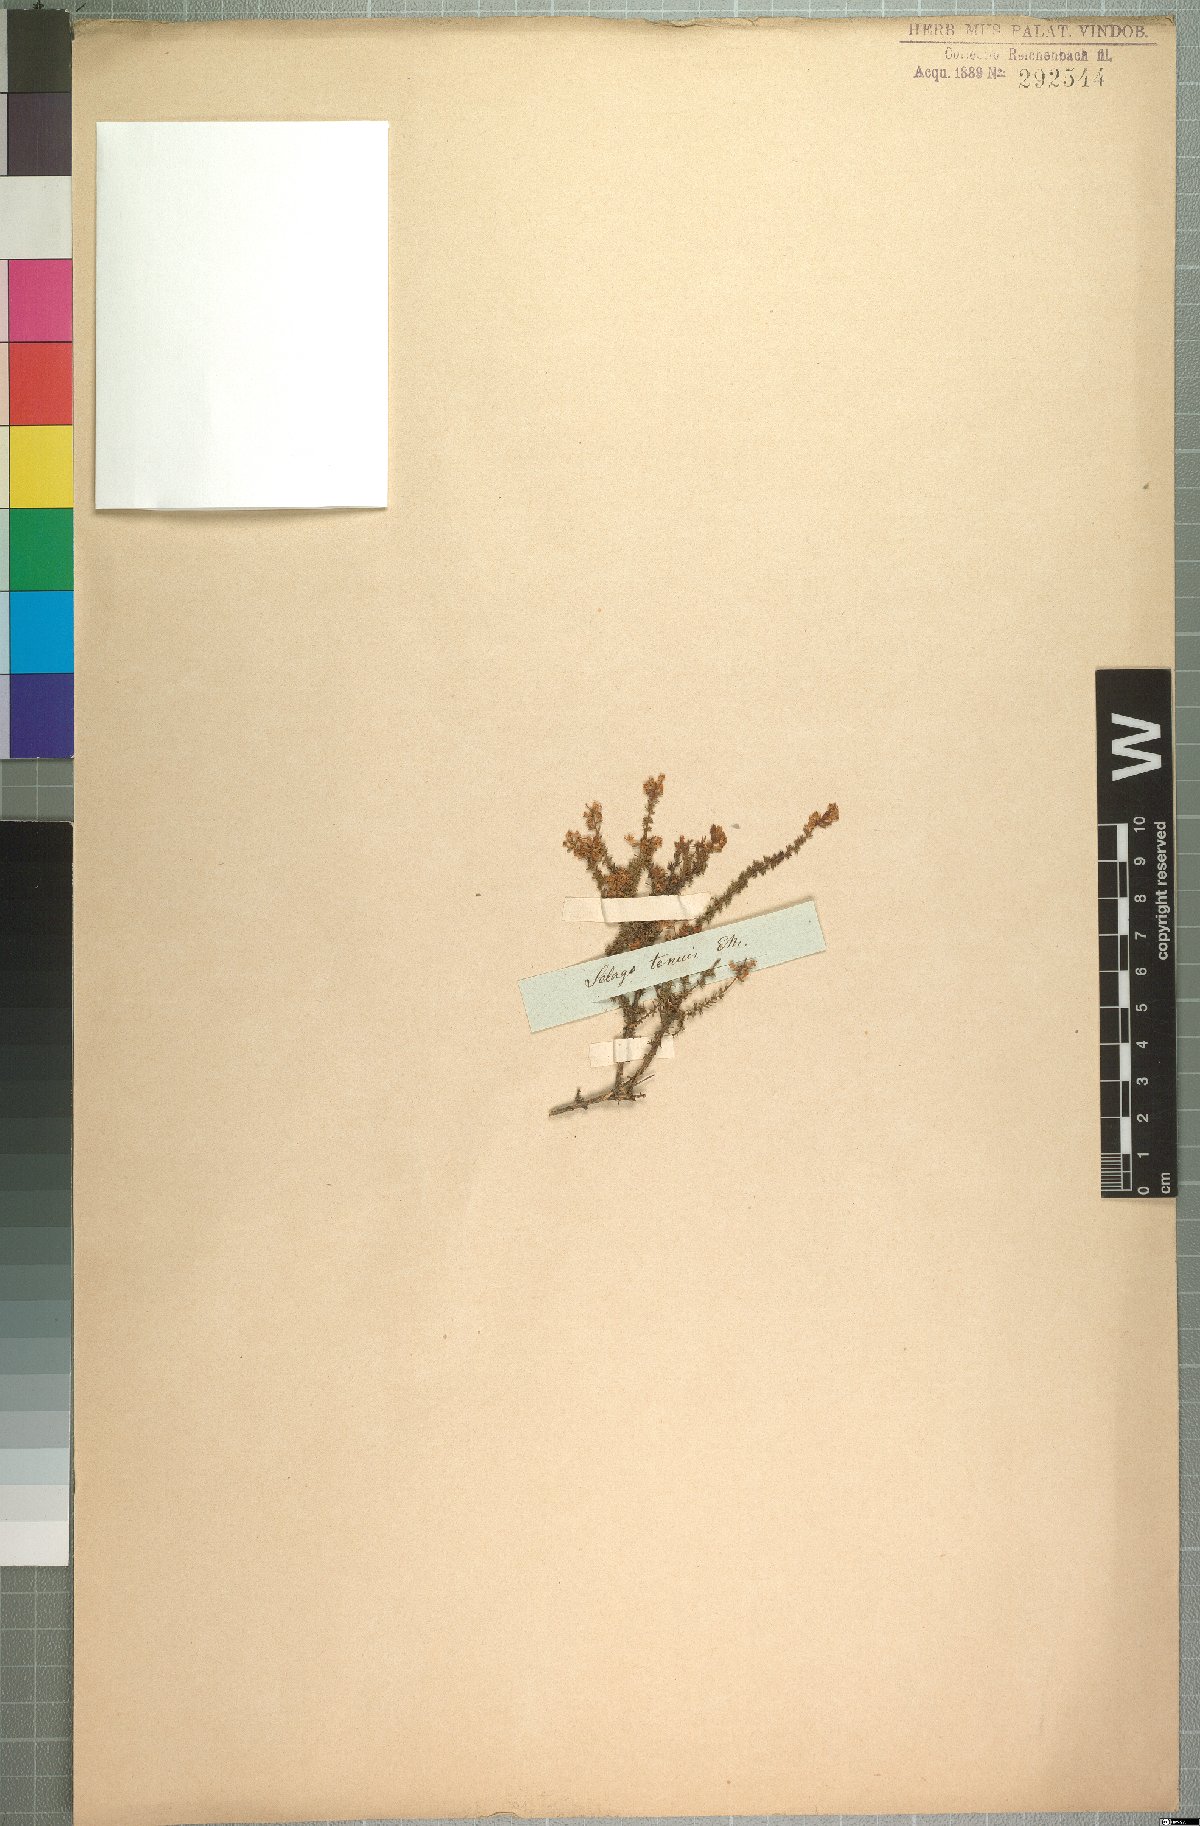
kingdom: Plantae
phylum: Tracheophyta
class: Magnoliopsida
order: Lamiales
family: Scrophulariaceae
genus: Selago
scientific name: Selago tenuis
